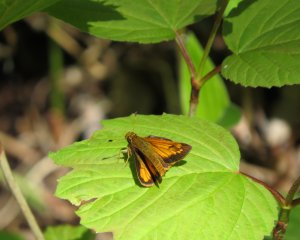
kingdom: Animalia
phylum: Arthropoda
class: Insecta
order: Lepidoptera
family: Hesperiidae
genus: Lon
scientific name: Lon hobomok
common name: Hobomok Skipper
